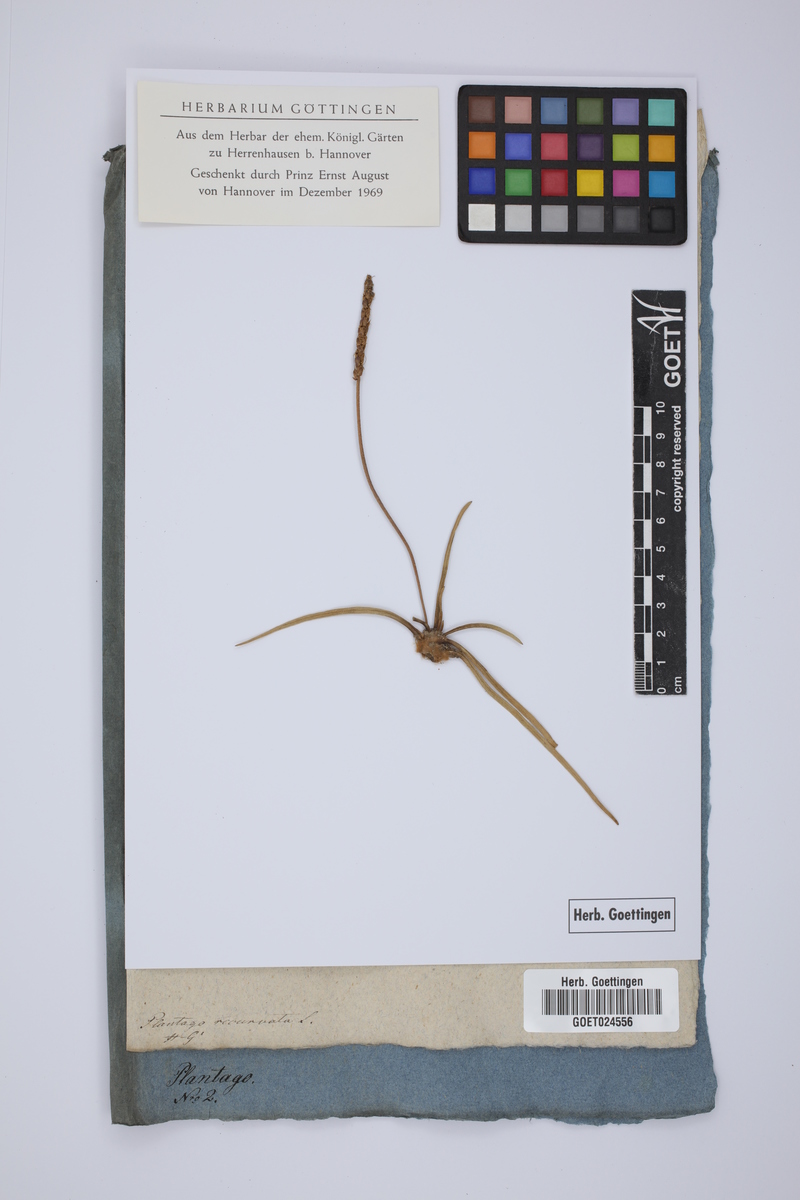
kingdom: Plantae
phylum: Tracheophyta
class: Magnoliopsida
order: Lamiales
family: Plantaginaceae
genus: Plantago
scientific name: Plantago subulata
